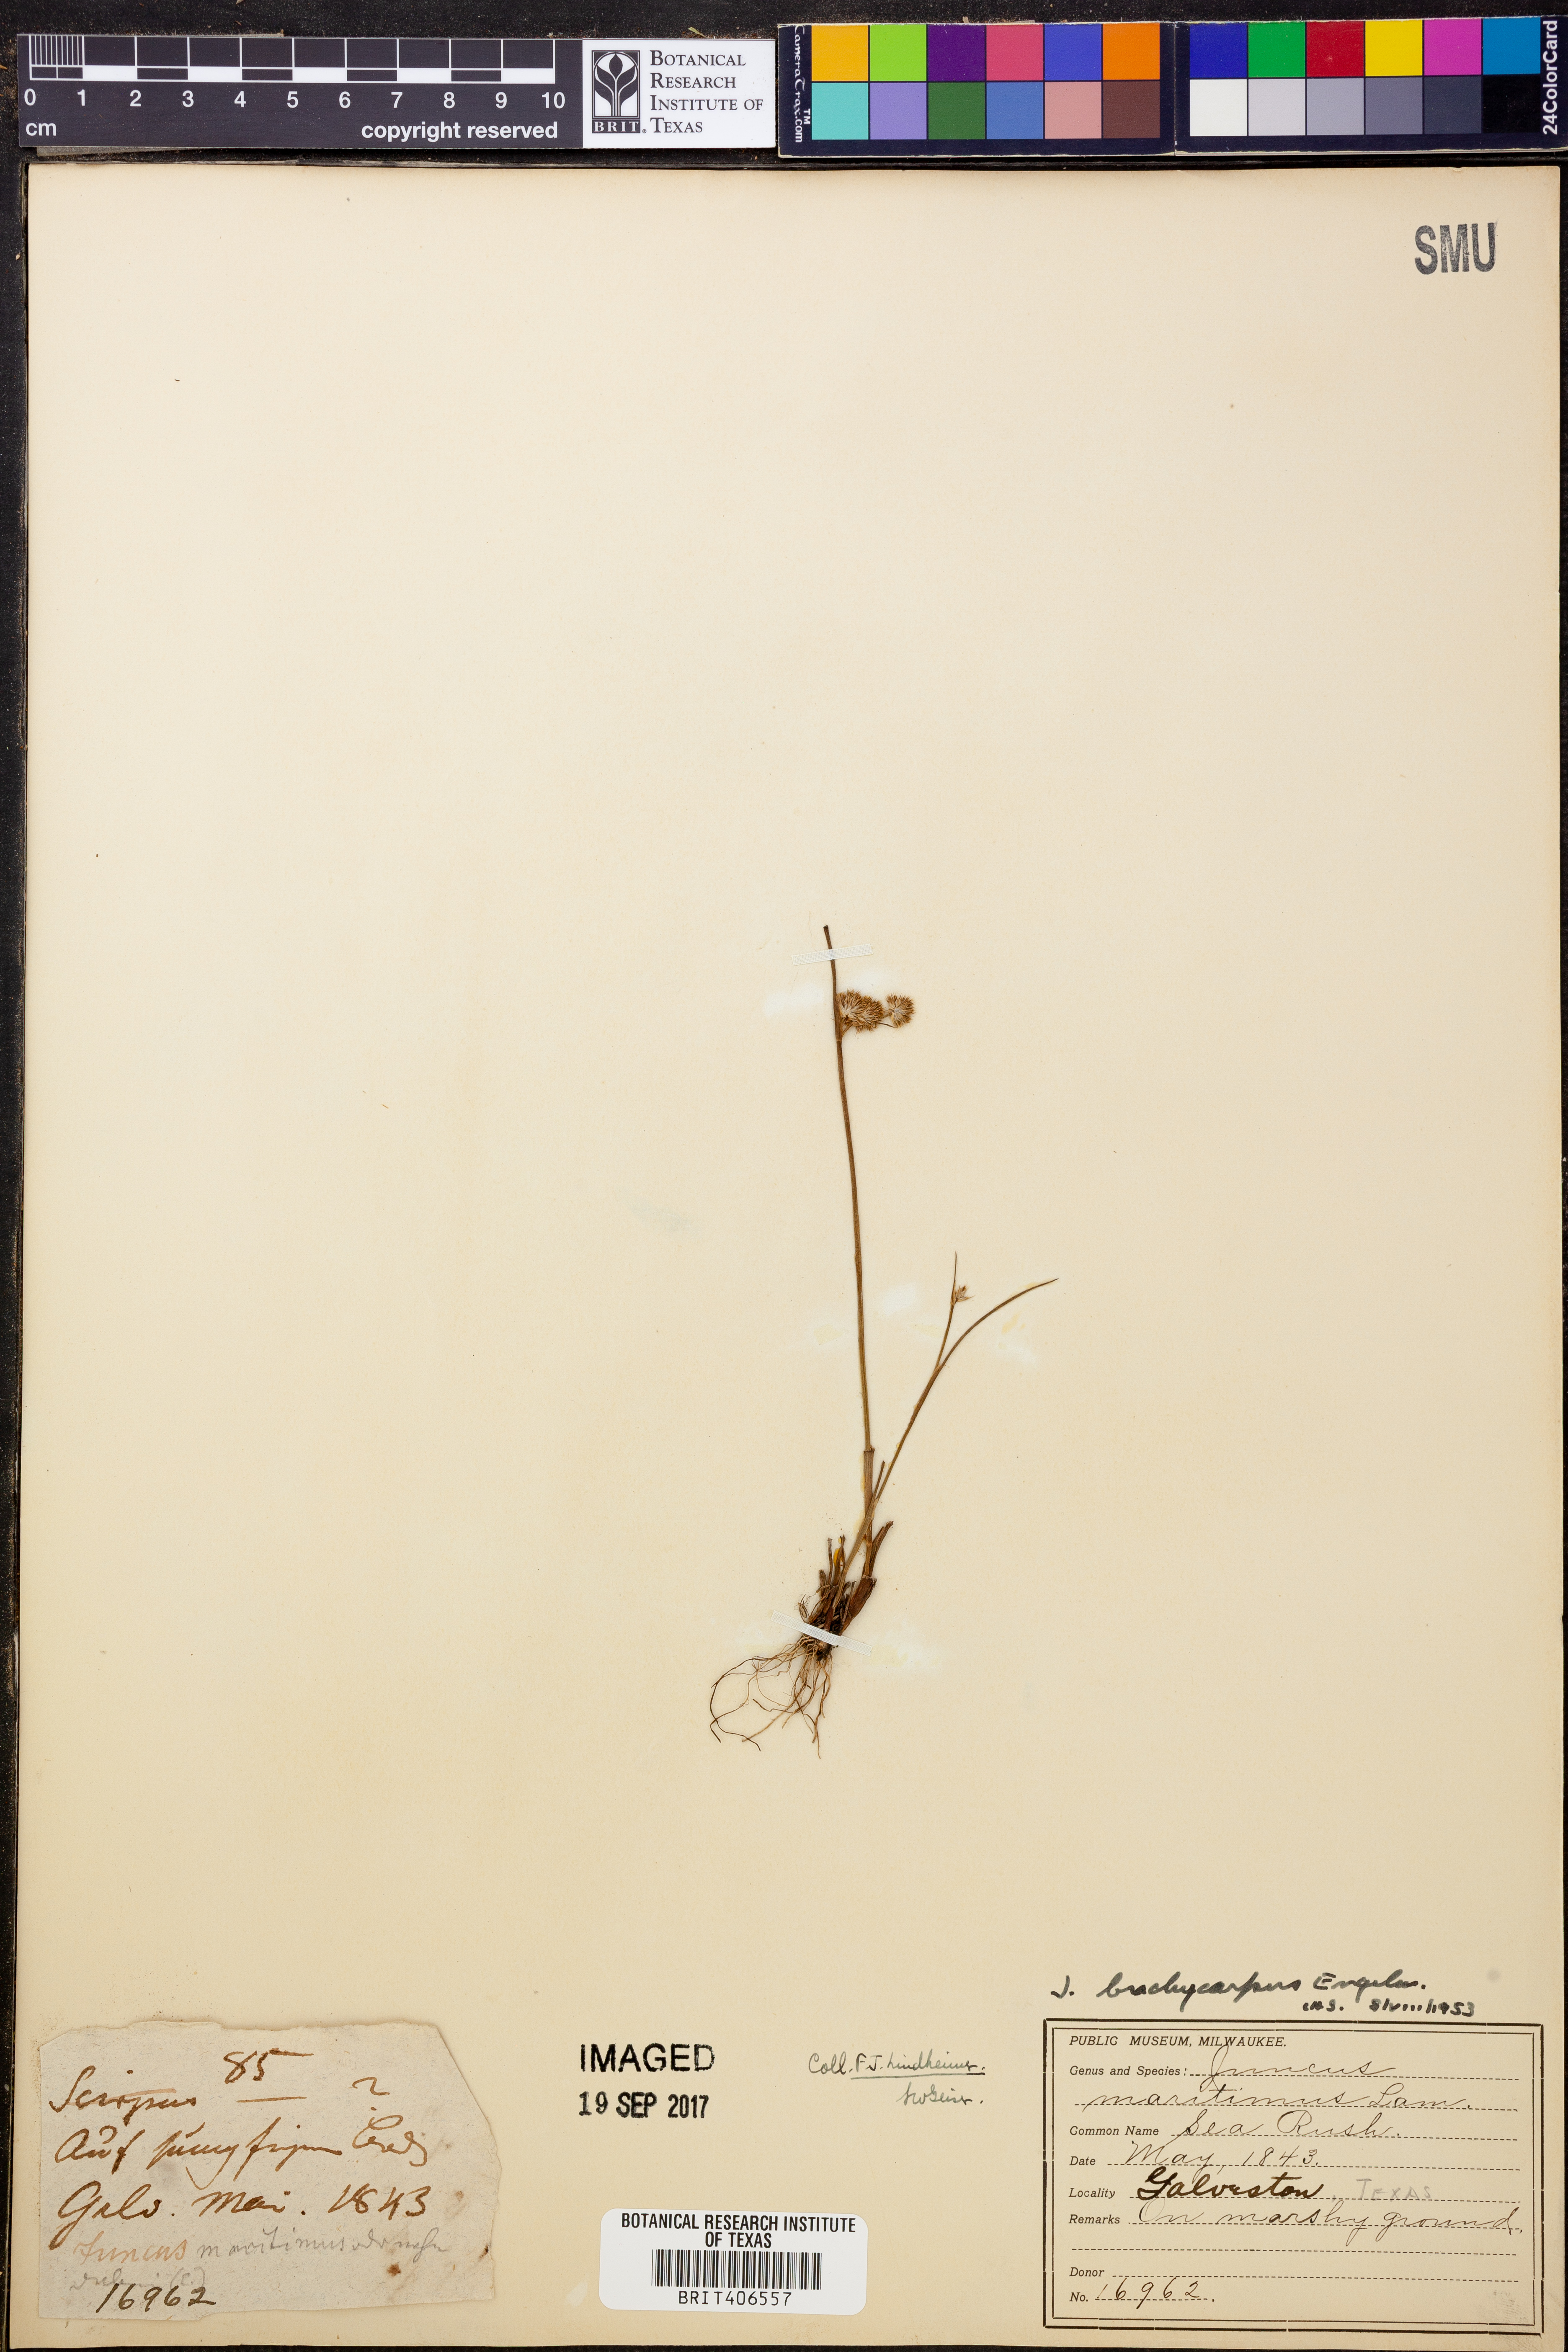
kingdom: Plantae
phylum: Tracheophyta
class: Liliopsida
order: Poales
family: Juncaceae
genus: Juncus
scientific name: Juncus brachycarpus
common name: Shore rush
